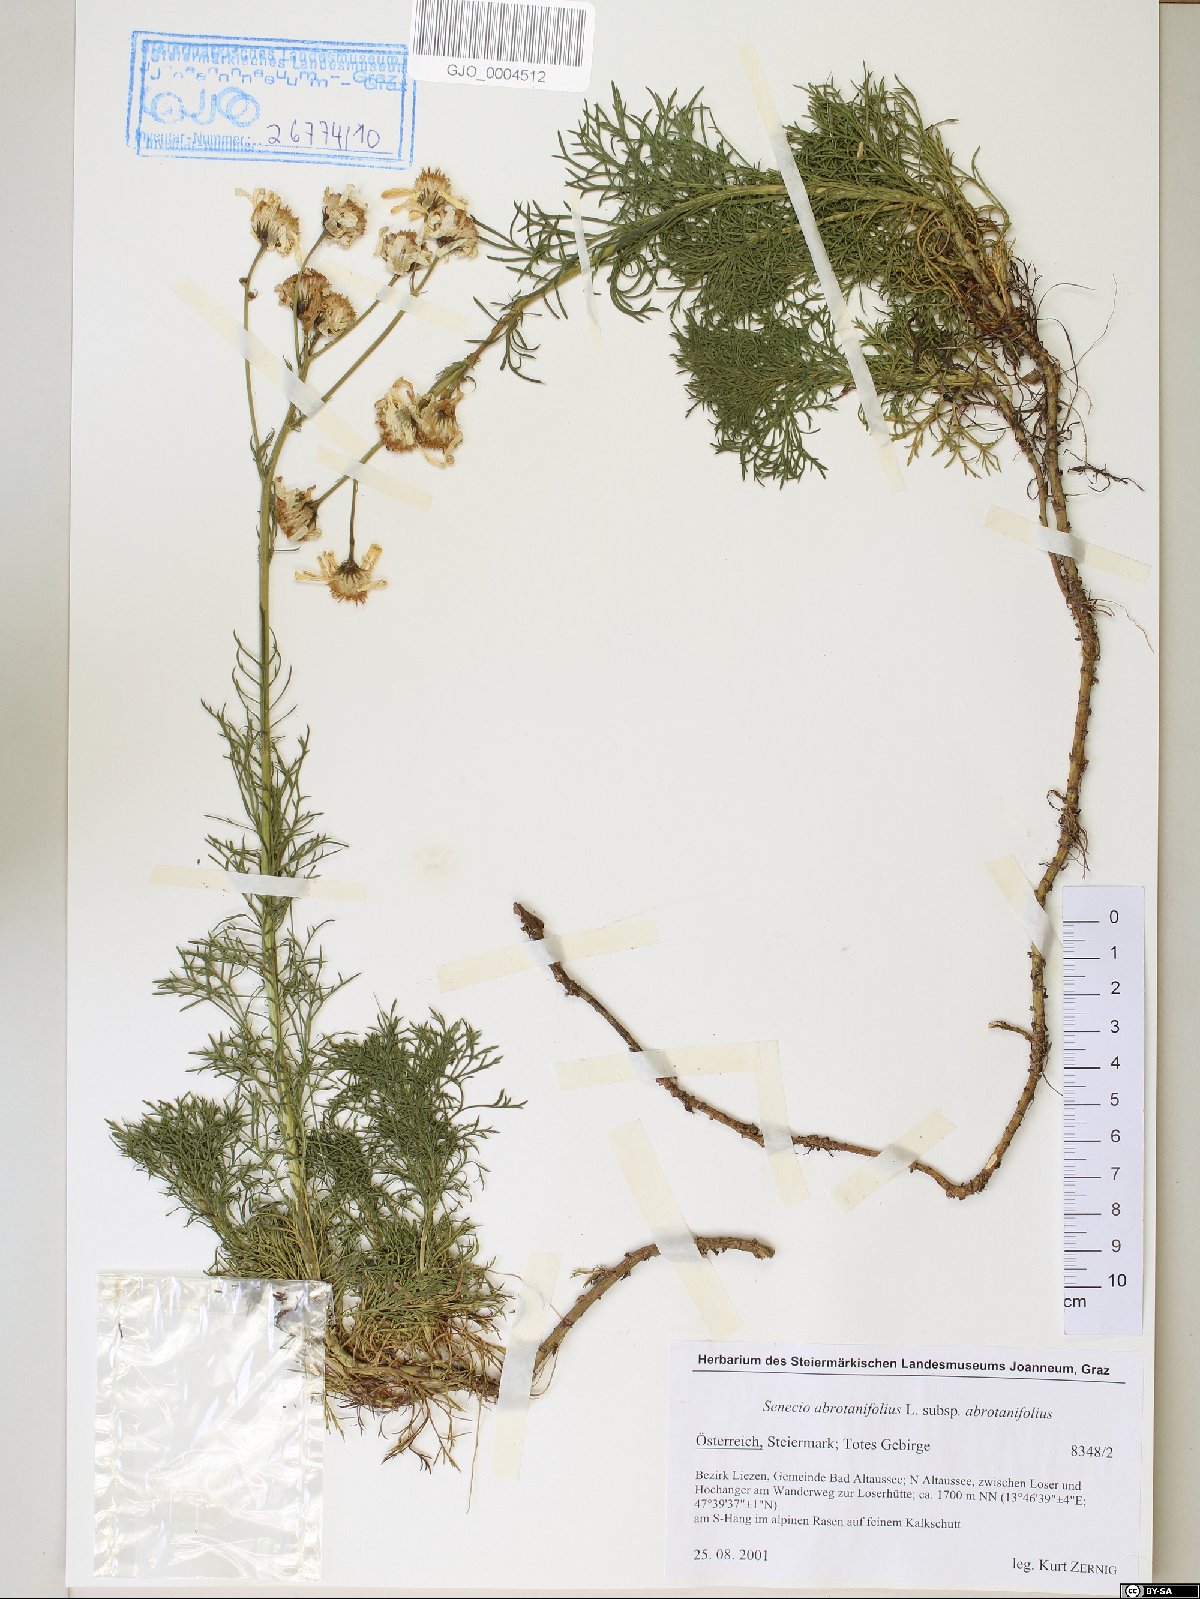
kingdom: Plantae
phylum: Tracheophyta
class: Magnoliopsida
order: Asterales
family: Asteraceae
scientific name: Asteraceae
